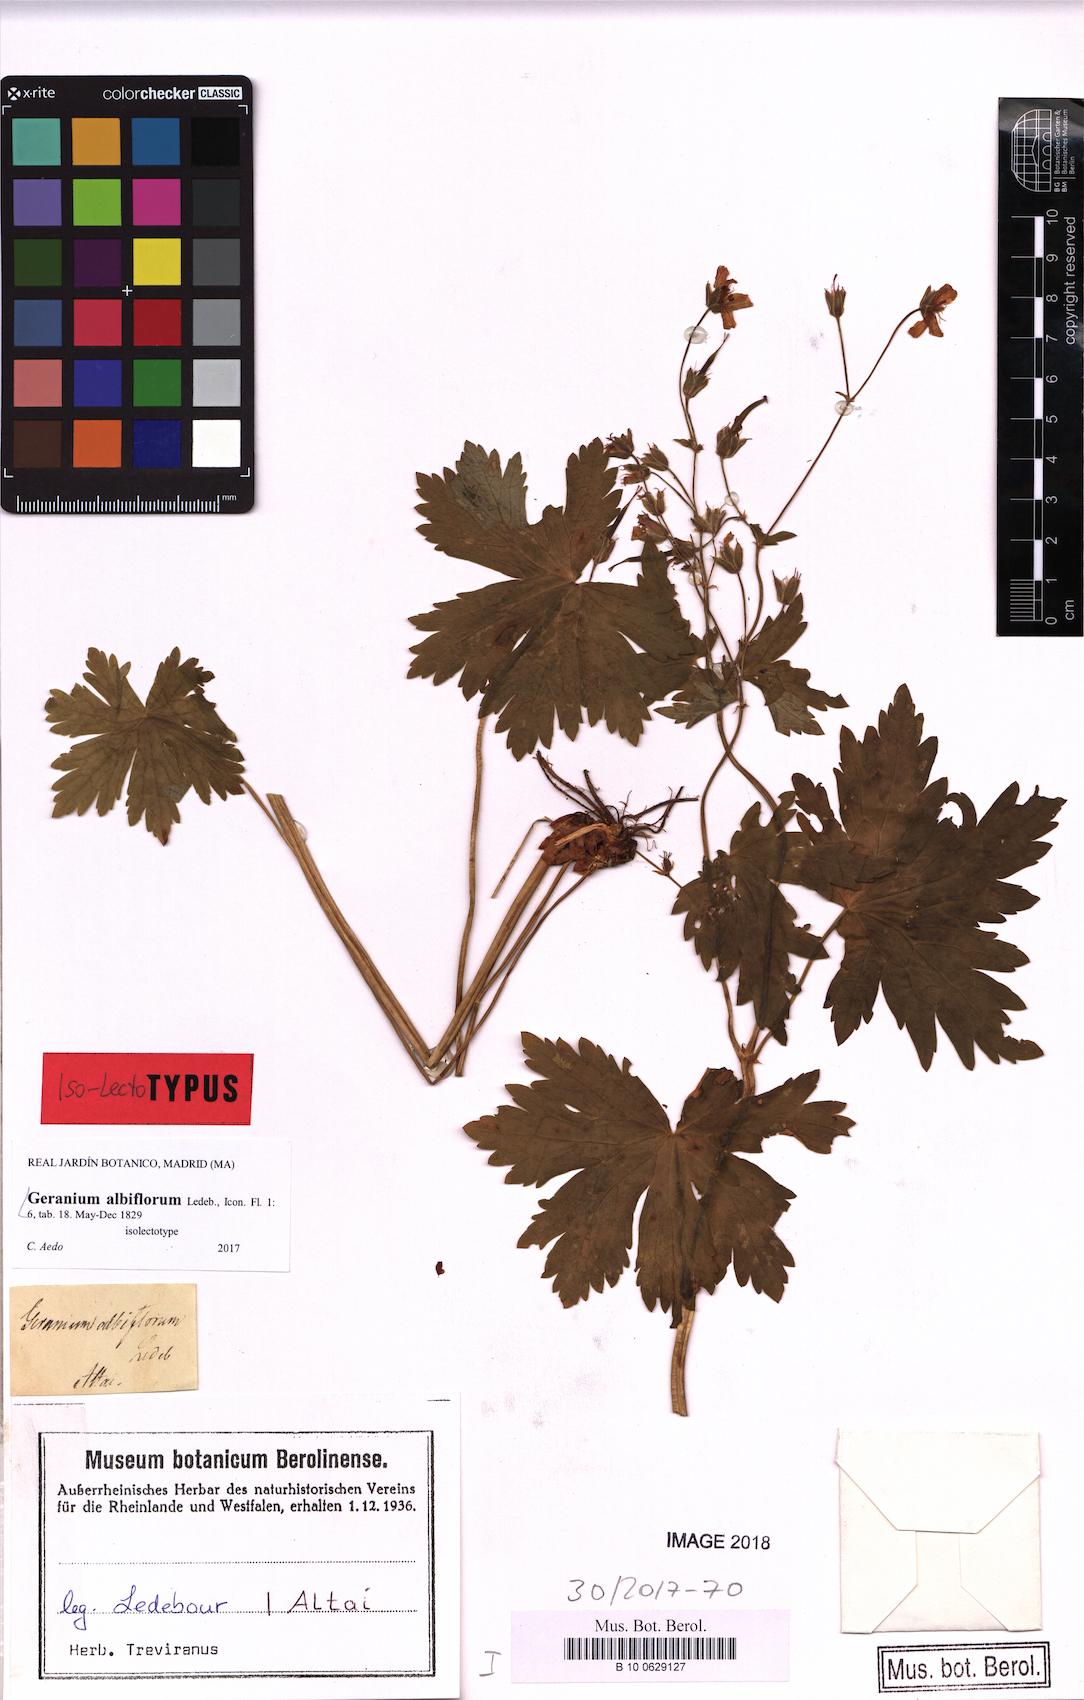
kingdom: Plantae
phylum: Tracheophyta
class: Magnoliopsida
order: Geraniales
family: Geraniaceae
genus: Geranium
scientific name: Geranium albiflorum
